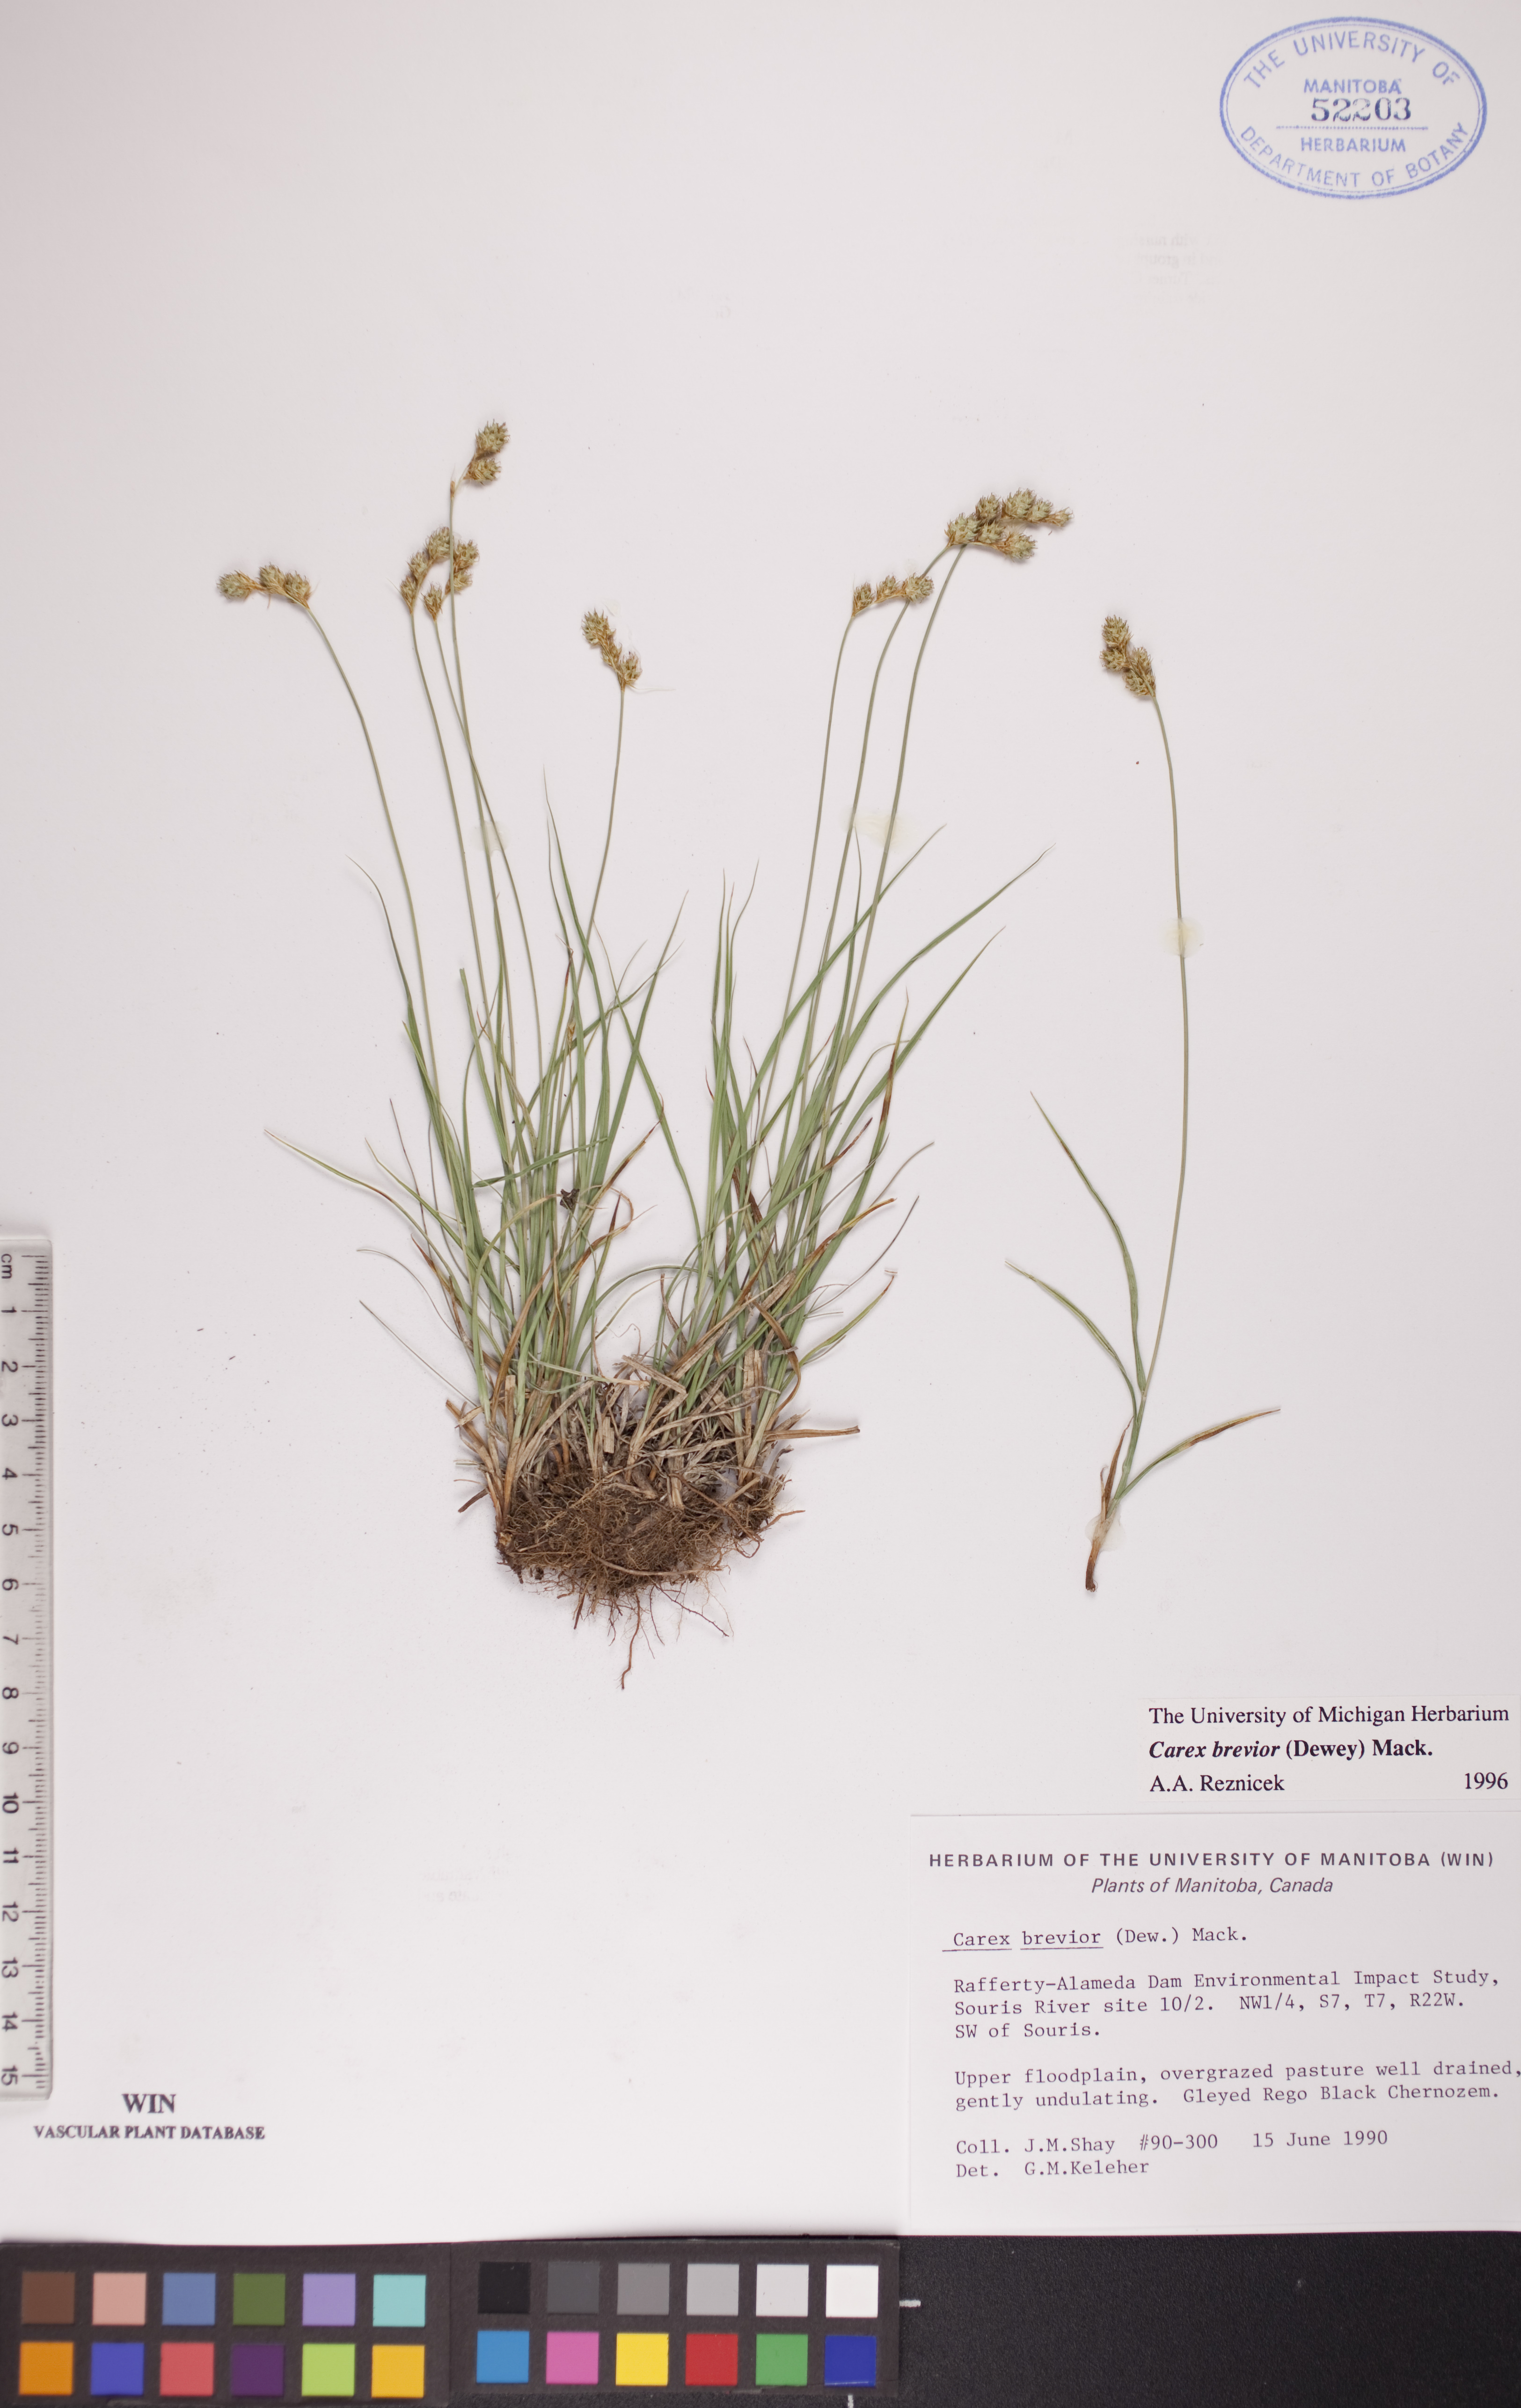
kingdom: Plantae
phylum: Tracheophyta
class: Liliopsida
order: Poales
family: Cyperaceae
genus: Carex
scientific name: Carex brevior
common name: Brevior sedge
